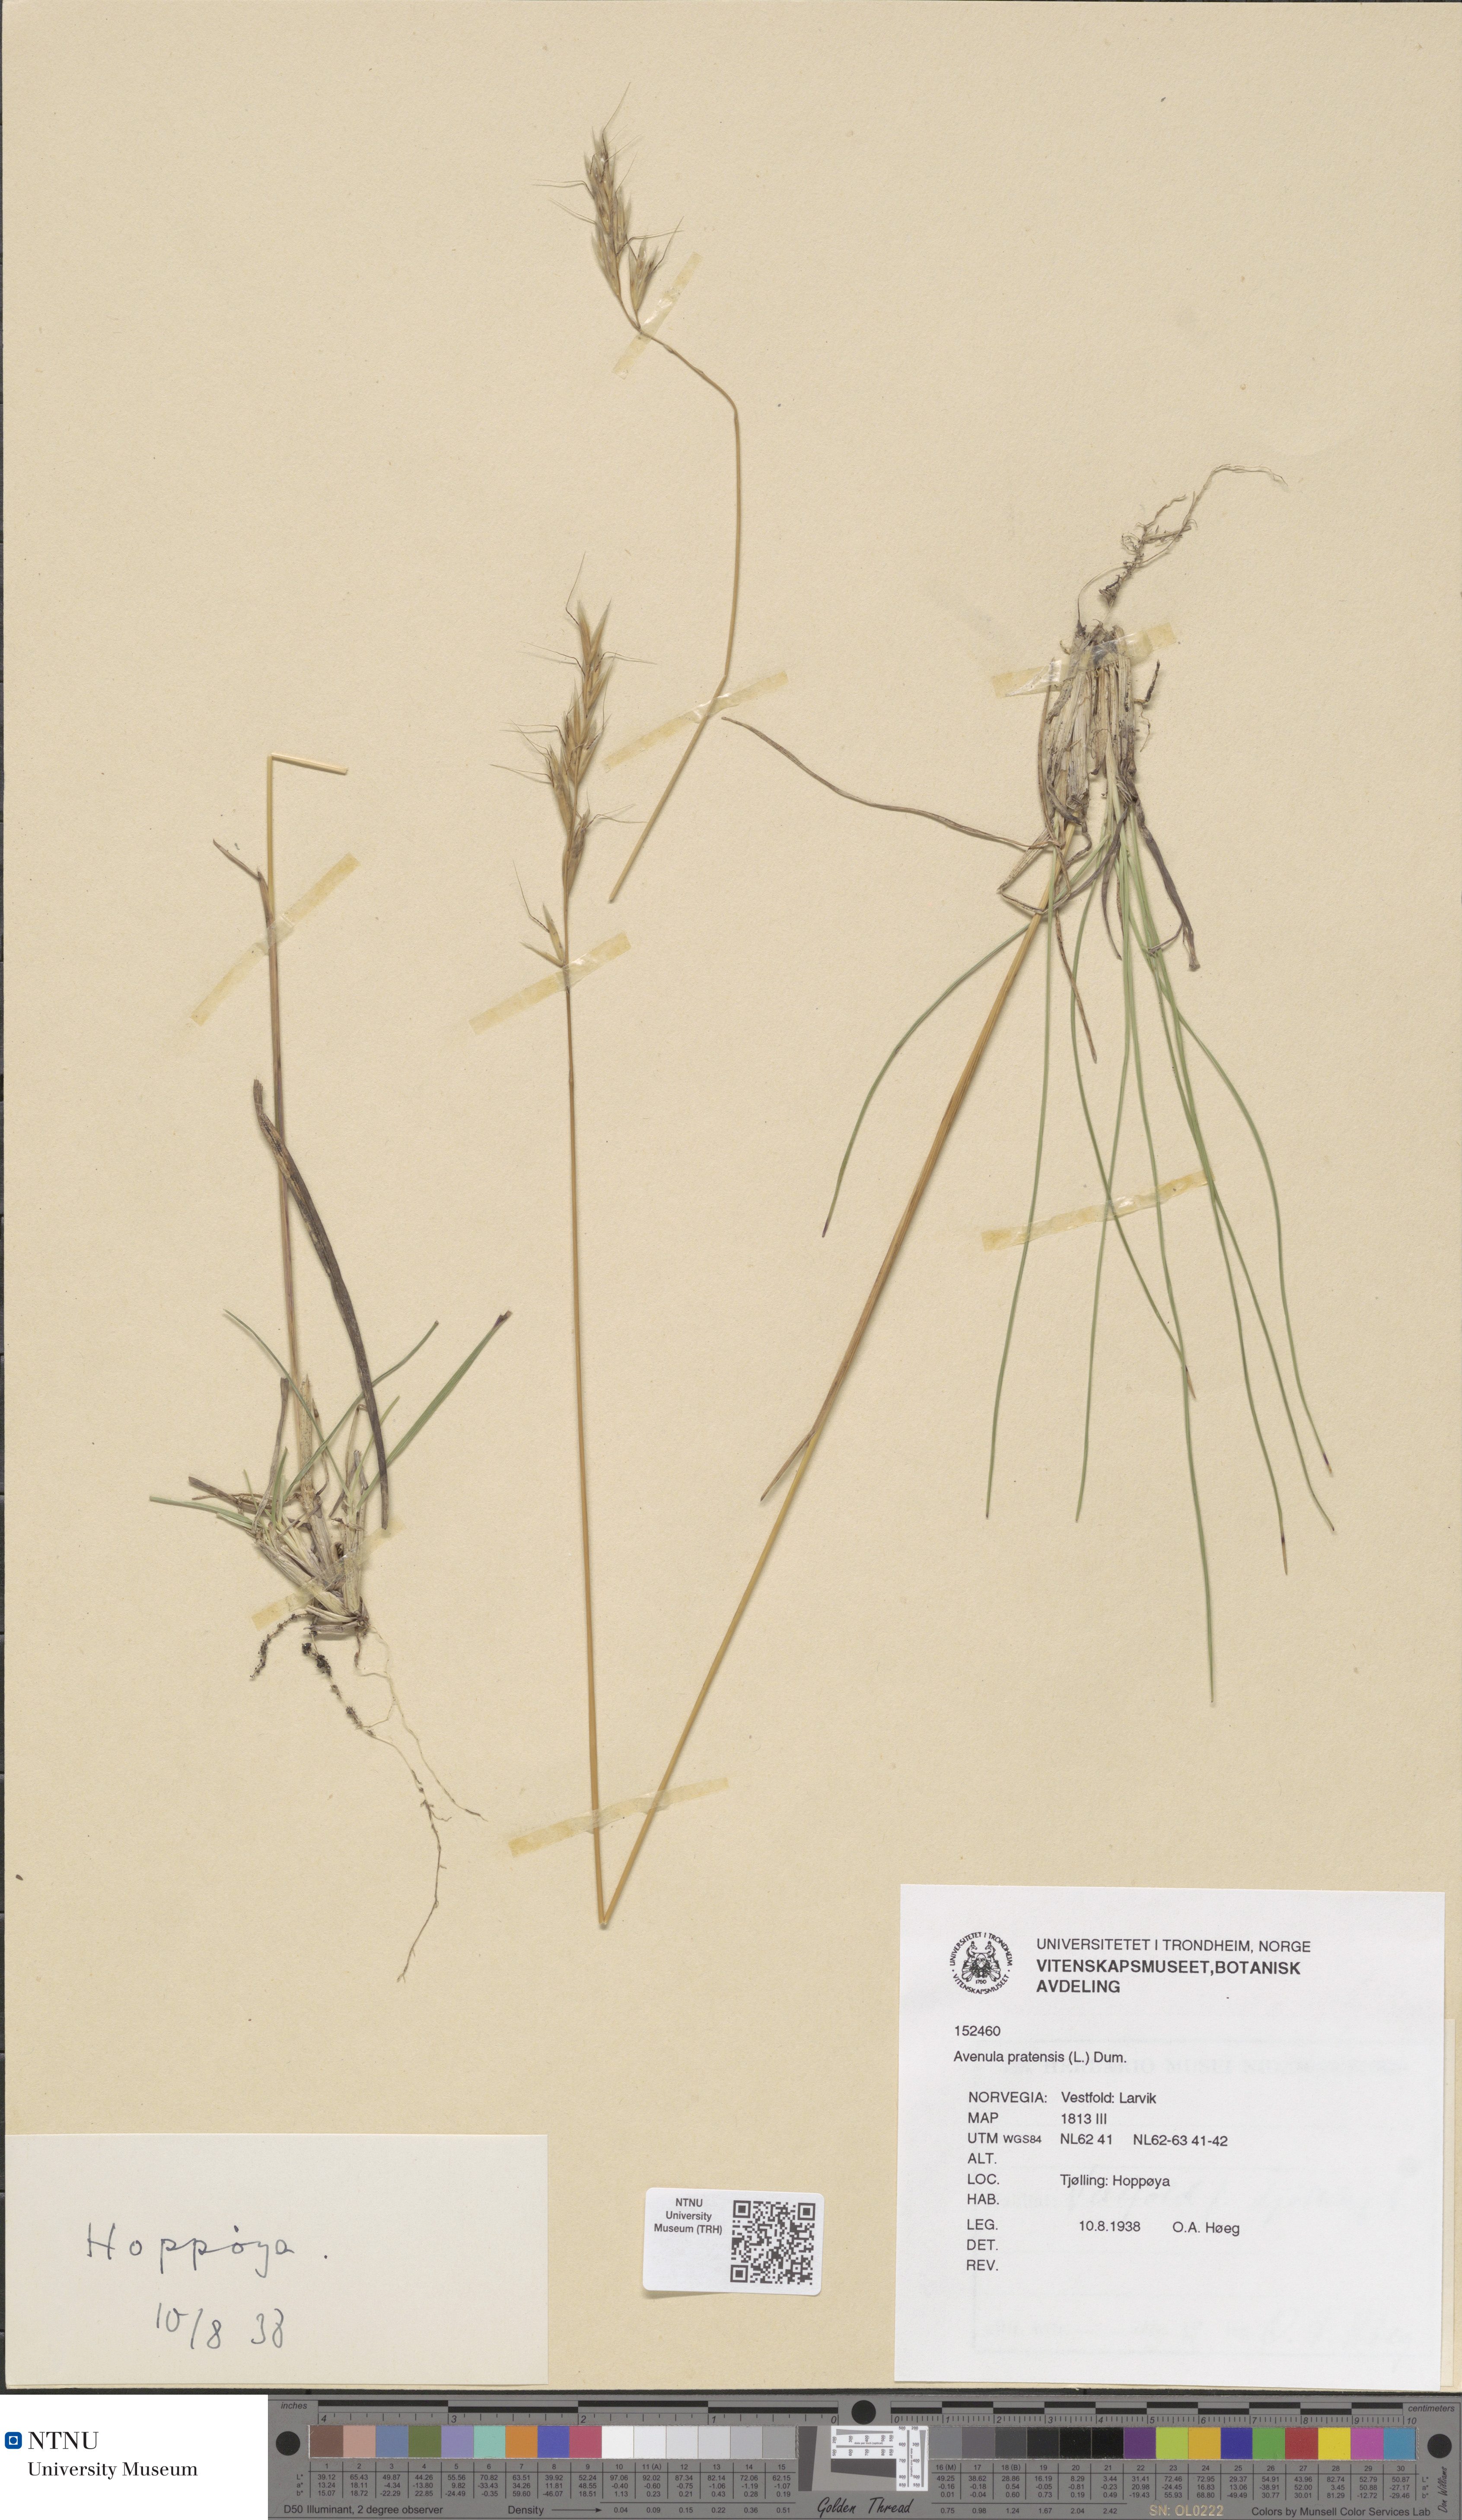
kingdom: Plantae
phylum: Tracheophyta
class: Liliopsida
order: Poales
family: Poaceae
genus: Helictochloa
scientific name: Helictochloa pratensis
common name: Meadow oat grass
